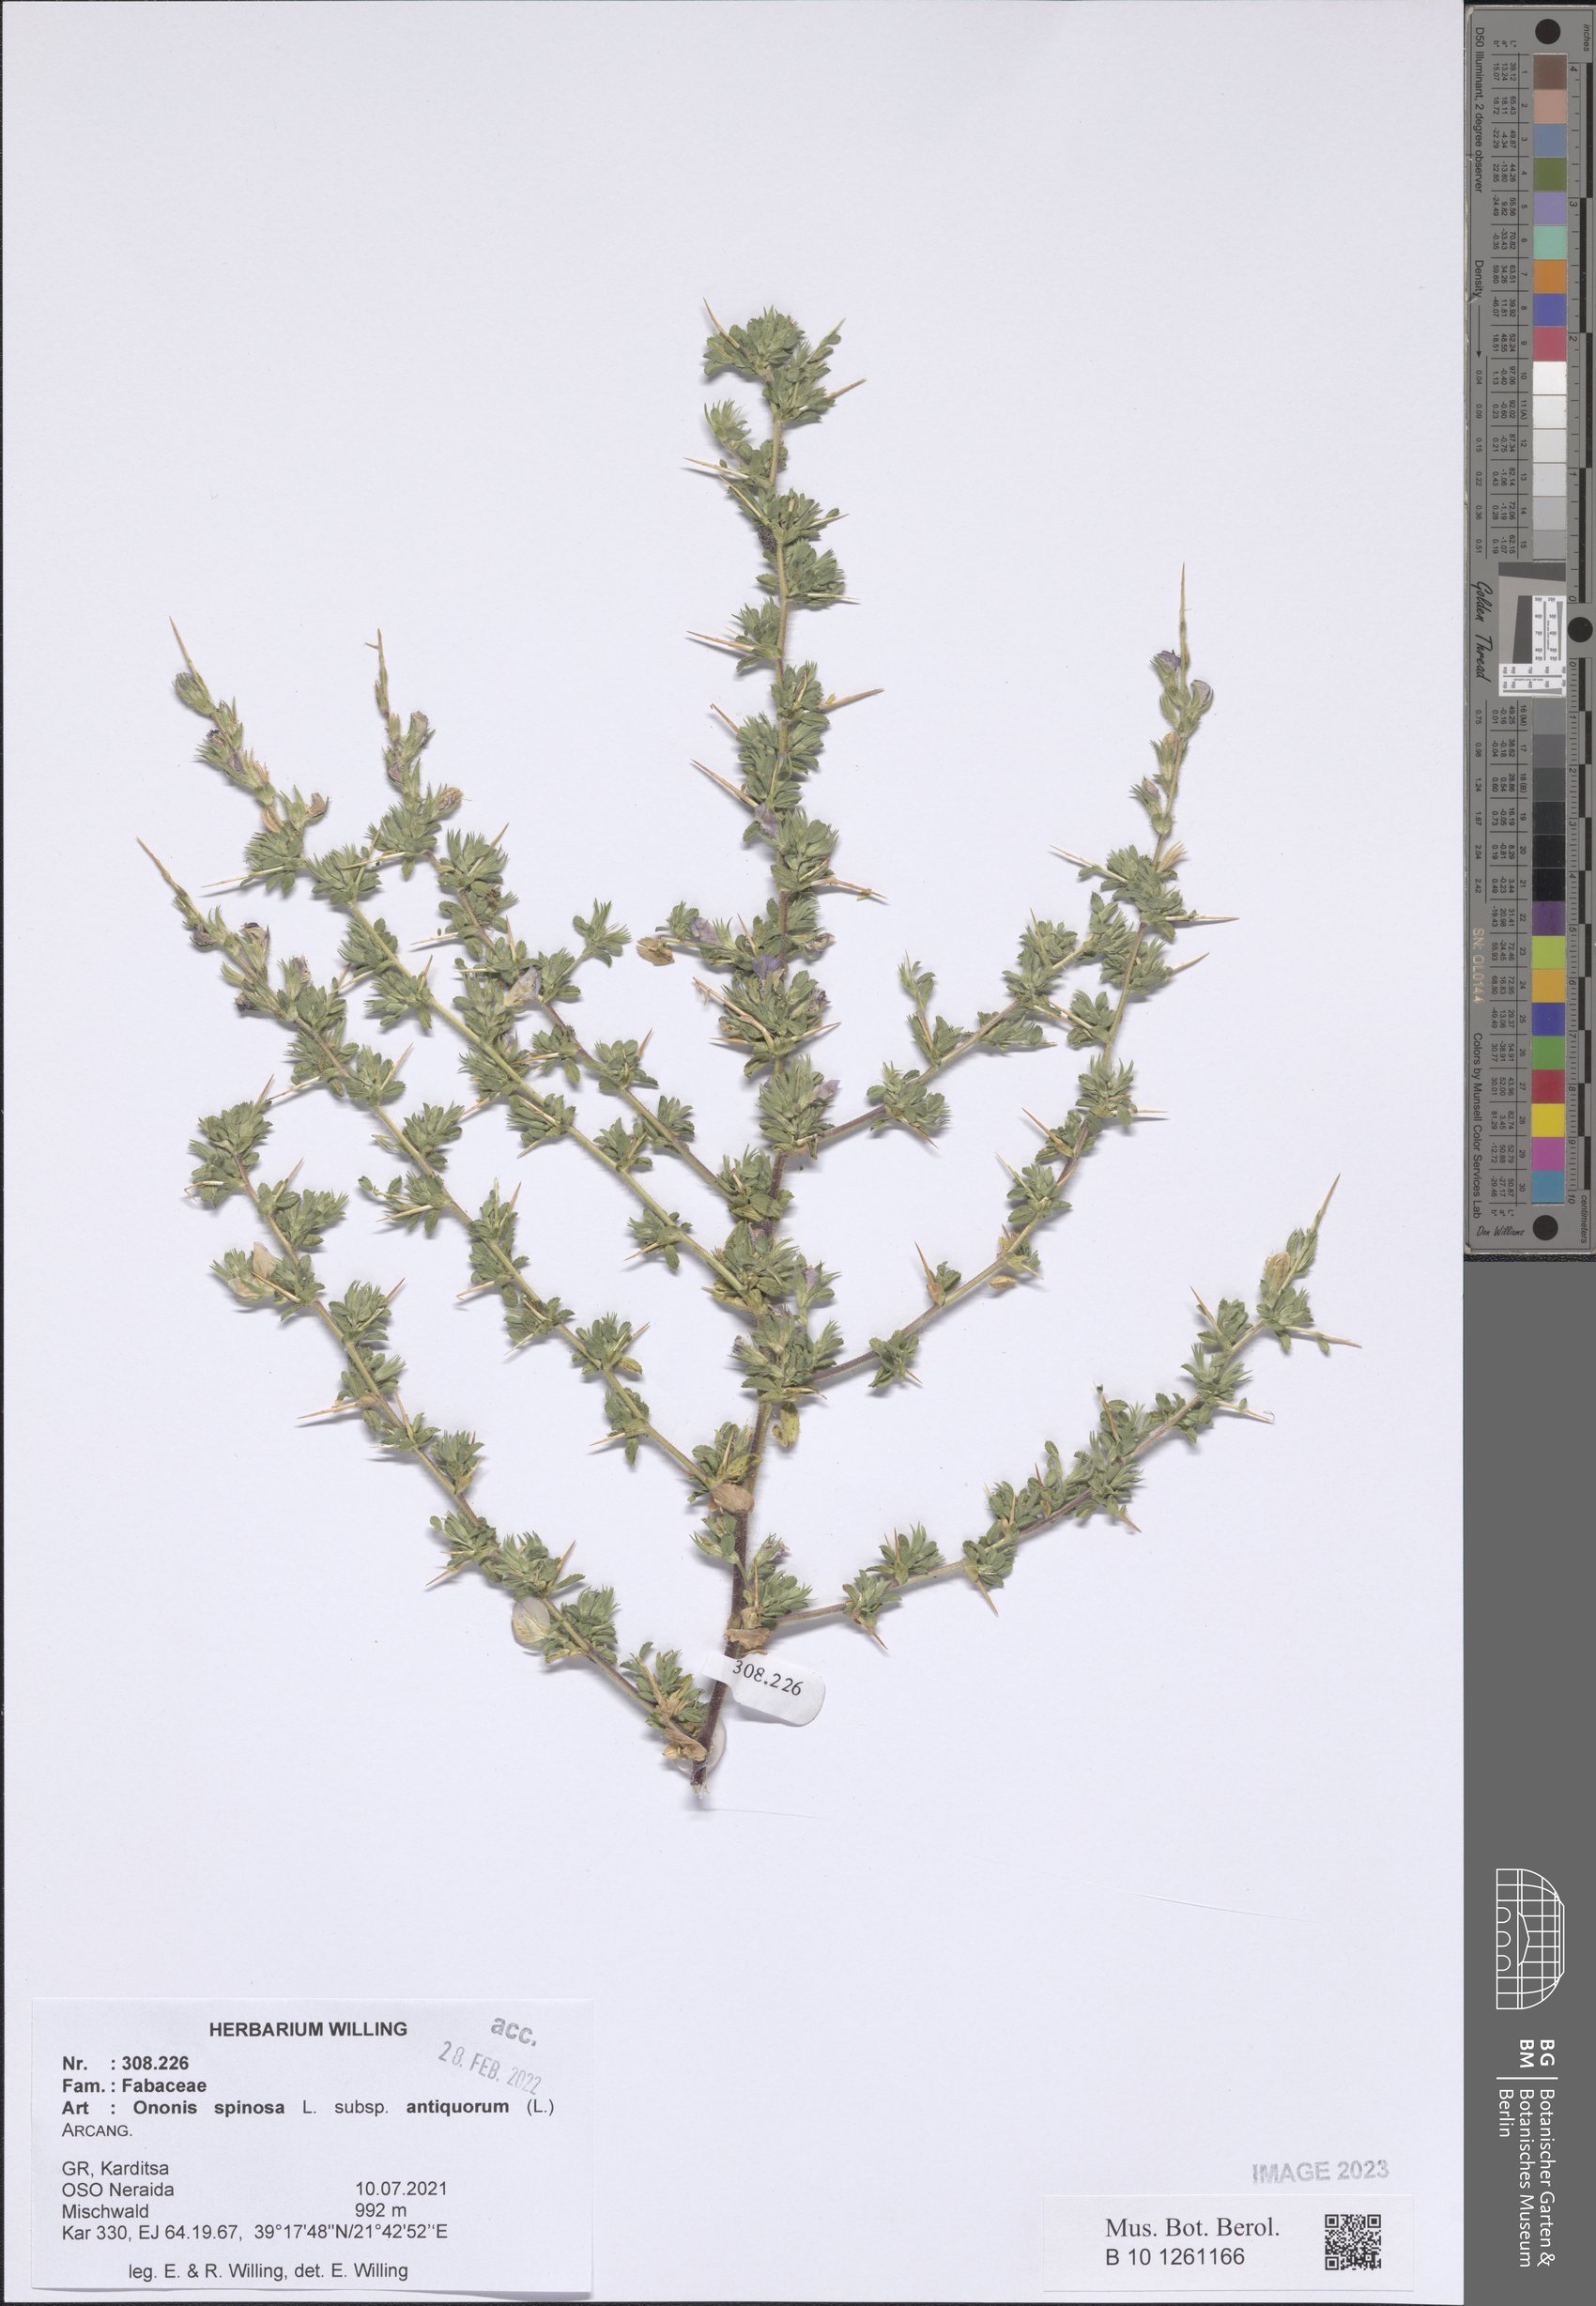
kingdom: Plantae
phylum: Tracheophyta
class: Magnoliopsida
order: Fabales
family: Fabaceae
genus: Ononis
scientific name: Ononis spinosa
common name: Spiny restharrow
